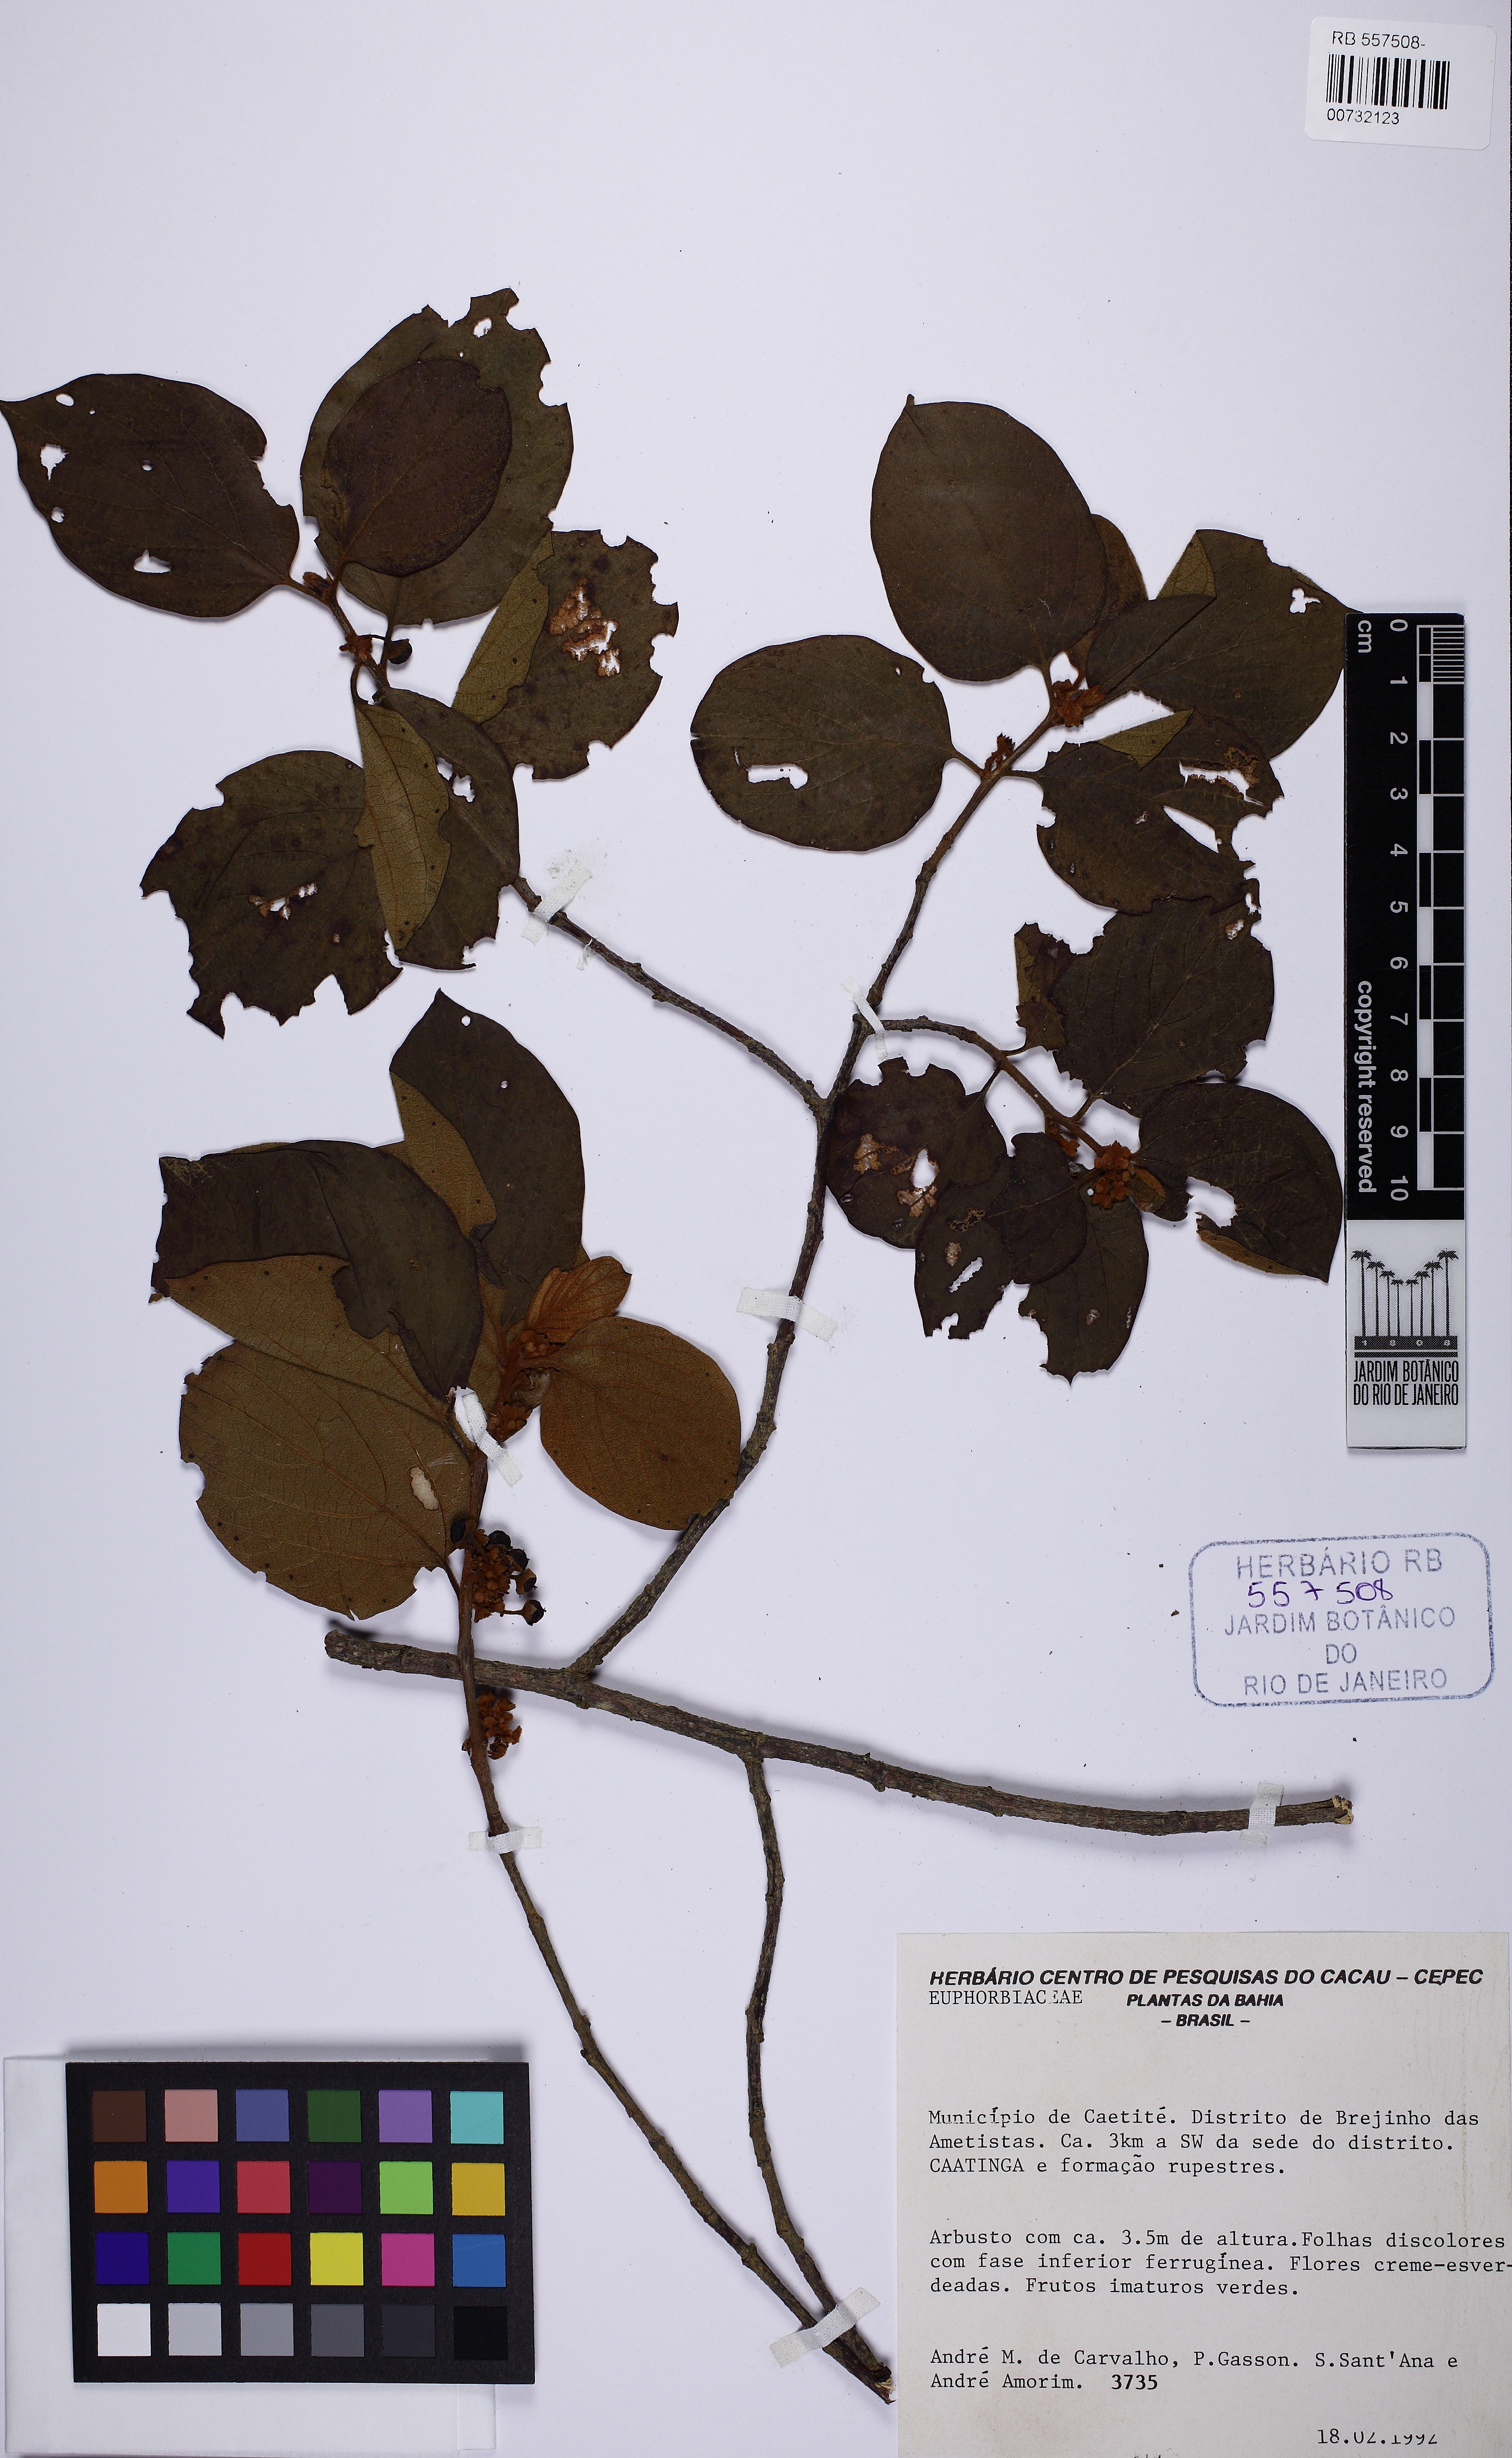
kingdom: Plantae
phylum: Tracheophyta
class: Magnoliopsida
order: Malpighiales
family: Euphorbiaceae
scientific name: Euphorbiaceae
